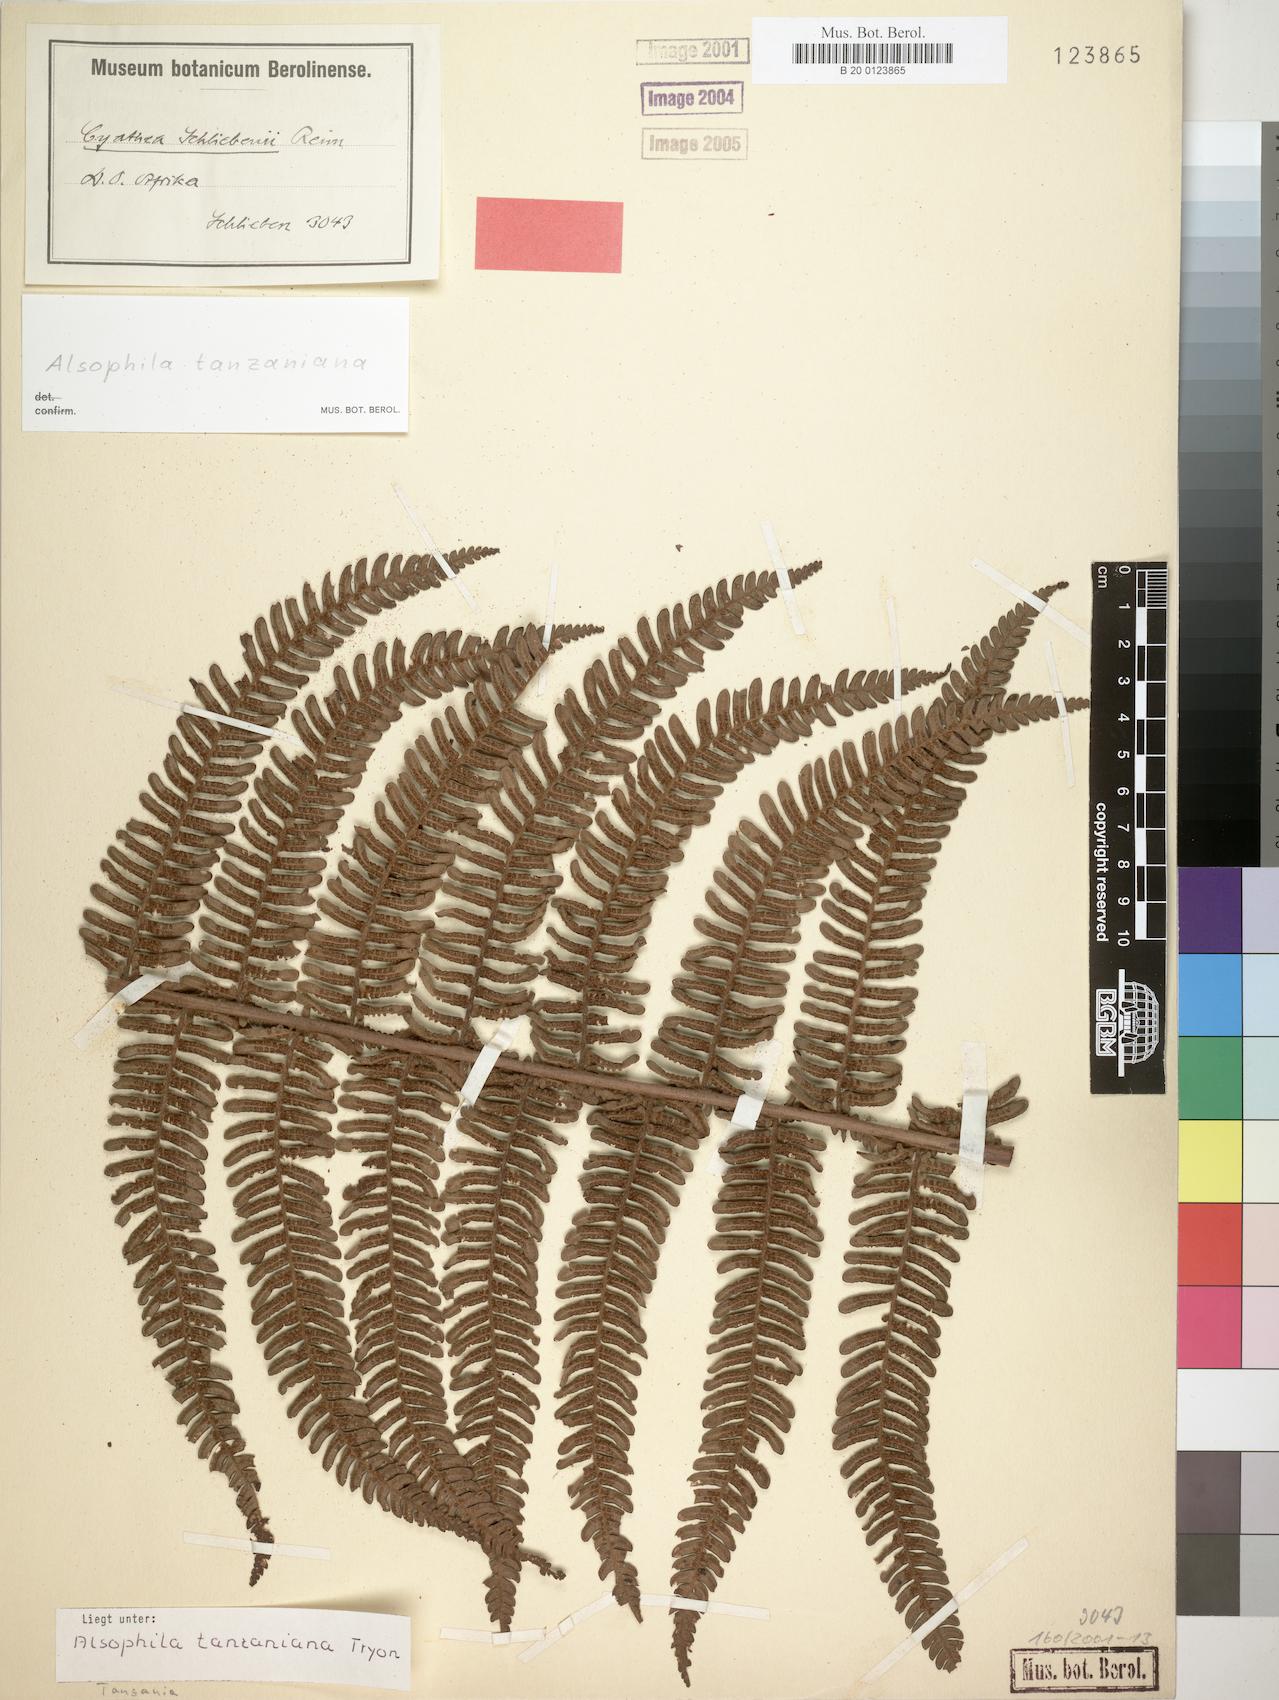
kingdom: Plantae
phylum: Tracheophyta
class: Polypodiopsida
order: Cyatheales
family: Cyatheaceae
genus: Alsophila
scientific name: Alsophila tanzaniana
